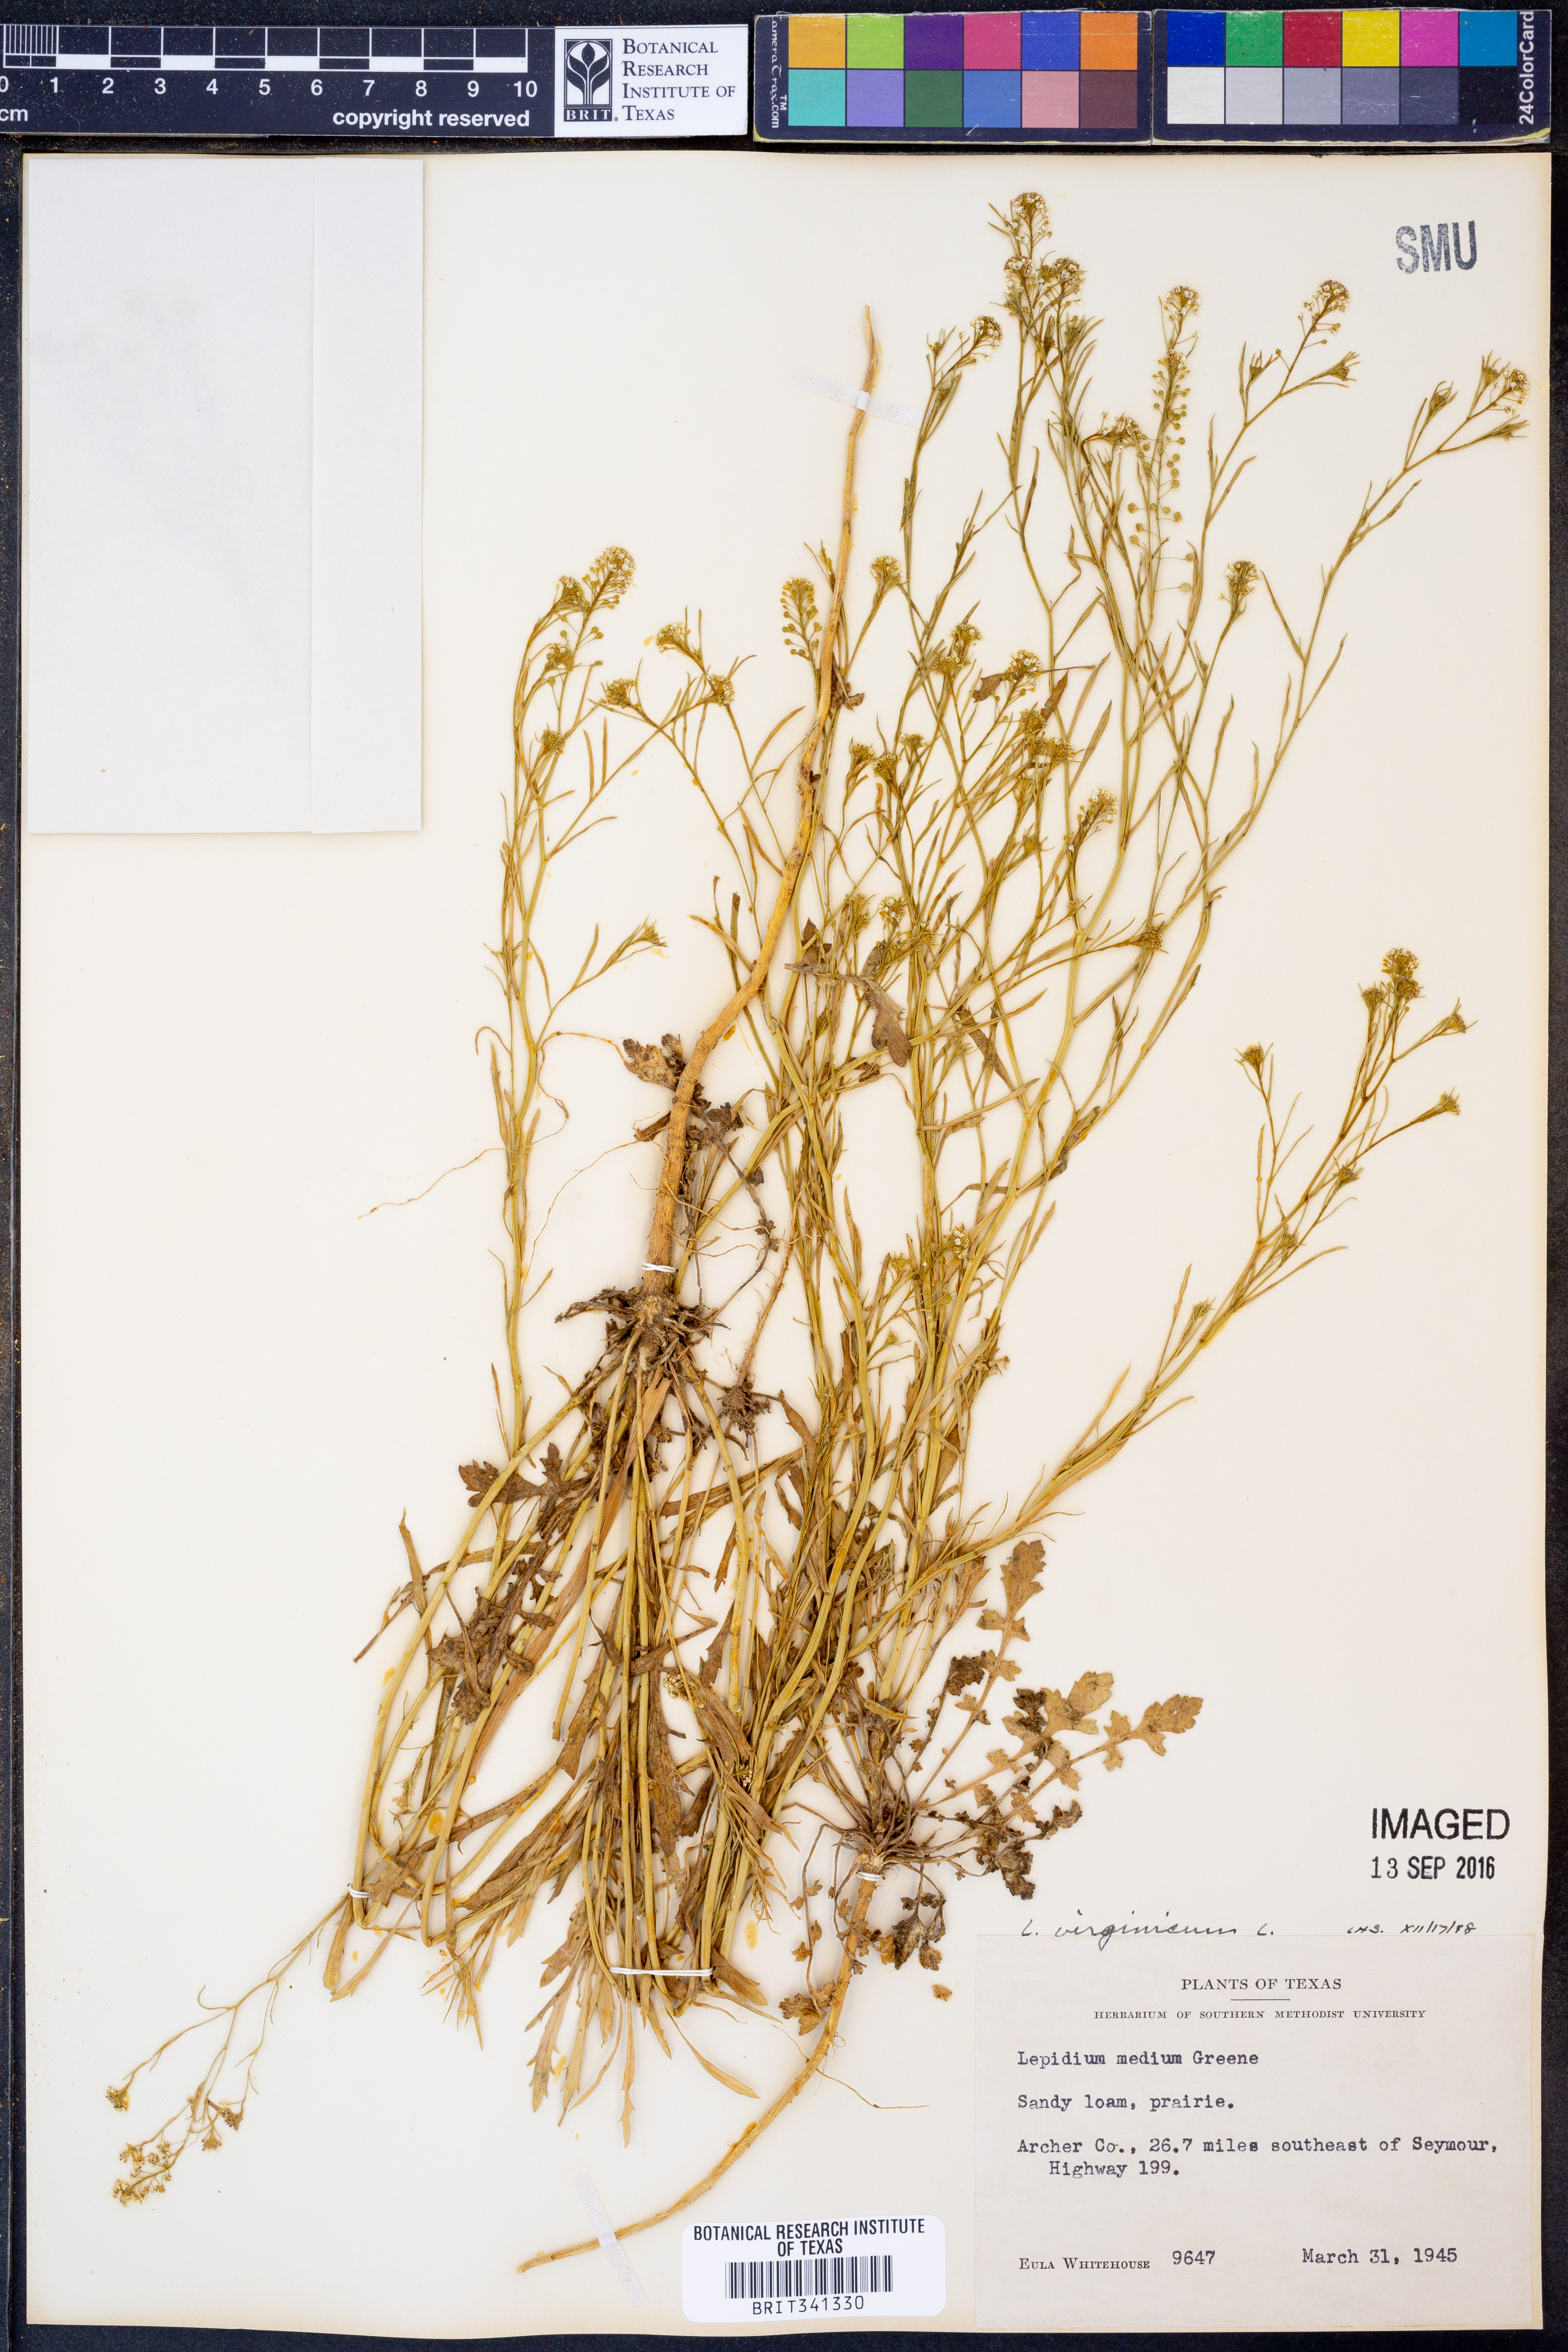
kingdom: Plantae
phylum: Tracheophyta
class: Magnoliopsida
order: Brassicales
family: Brassicaceae
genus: Lepidium
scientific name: Lepidium virginicum
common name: Least pepperwort
